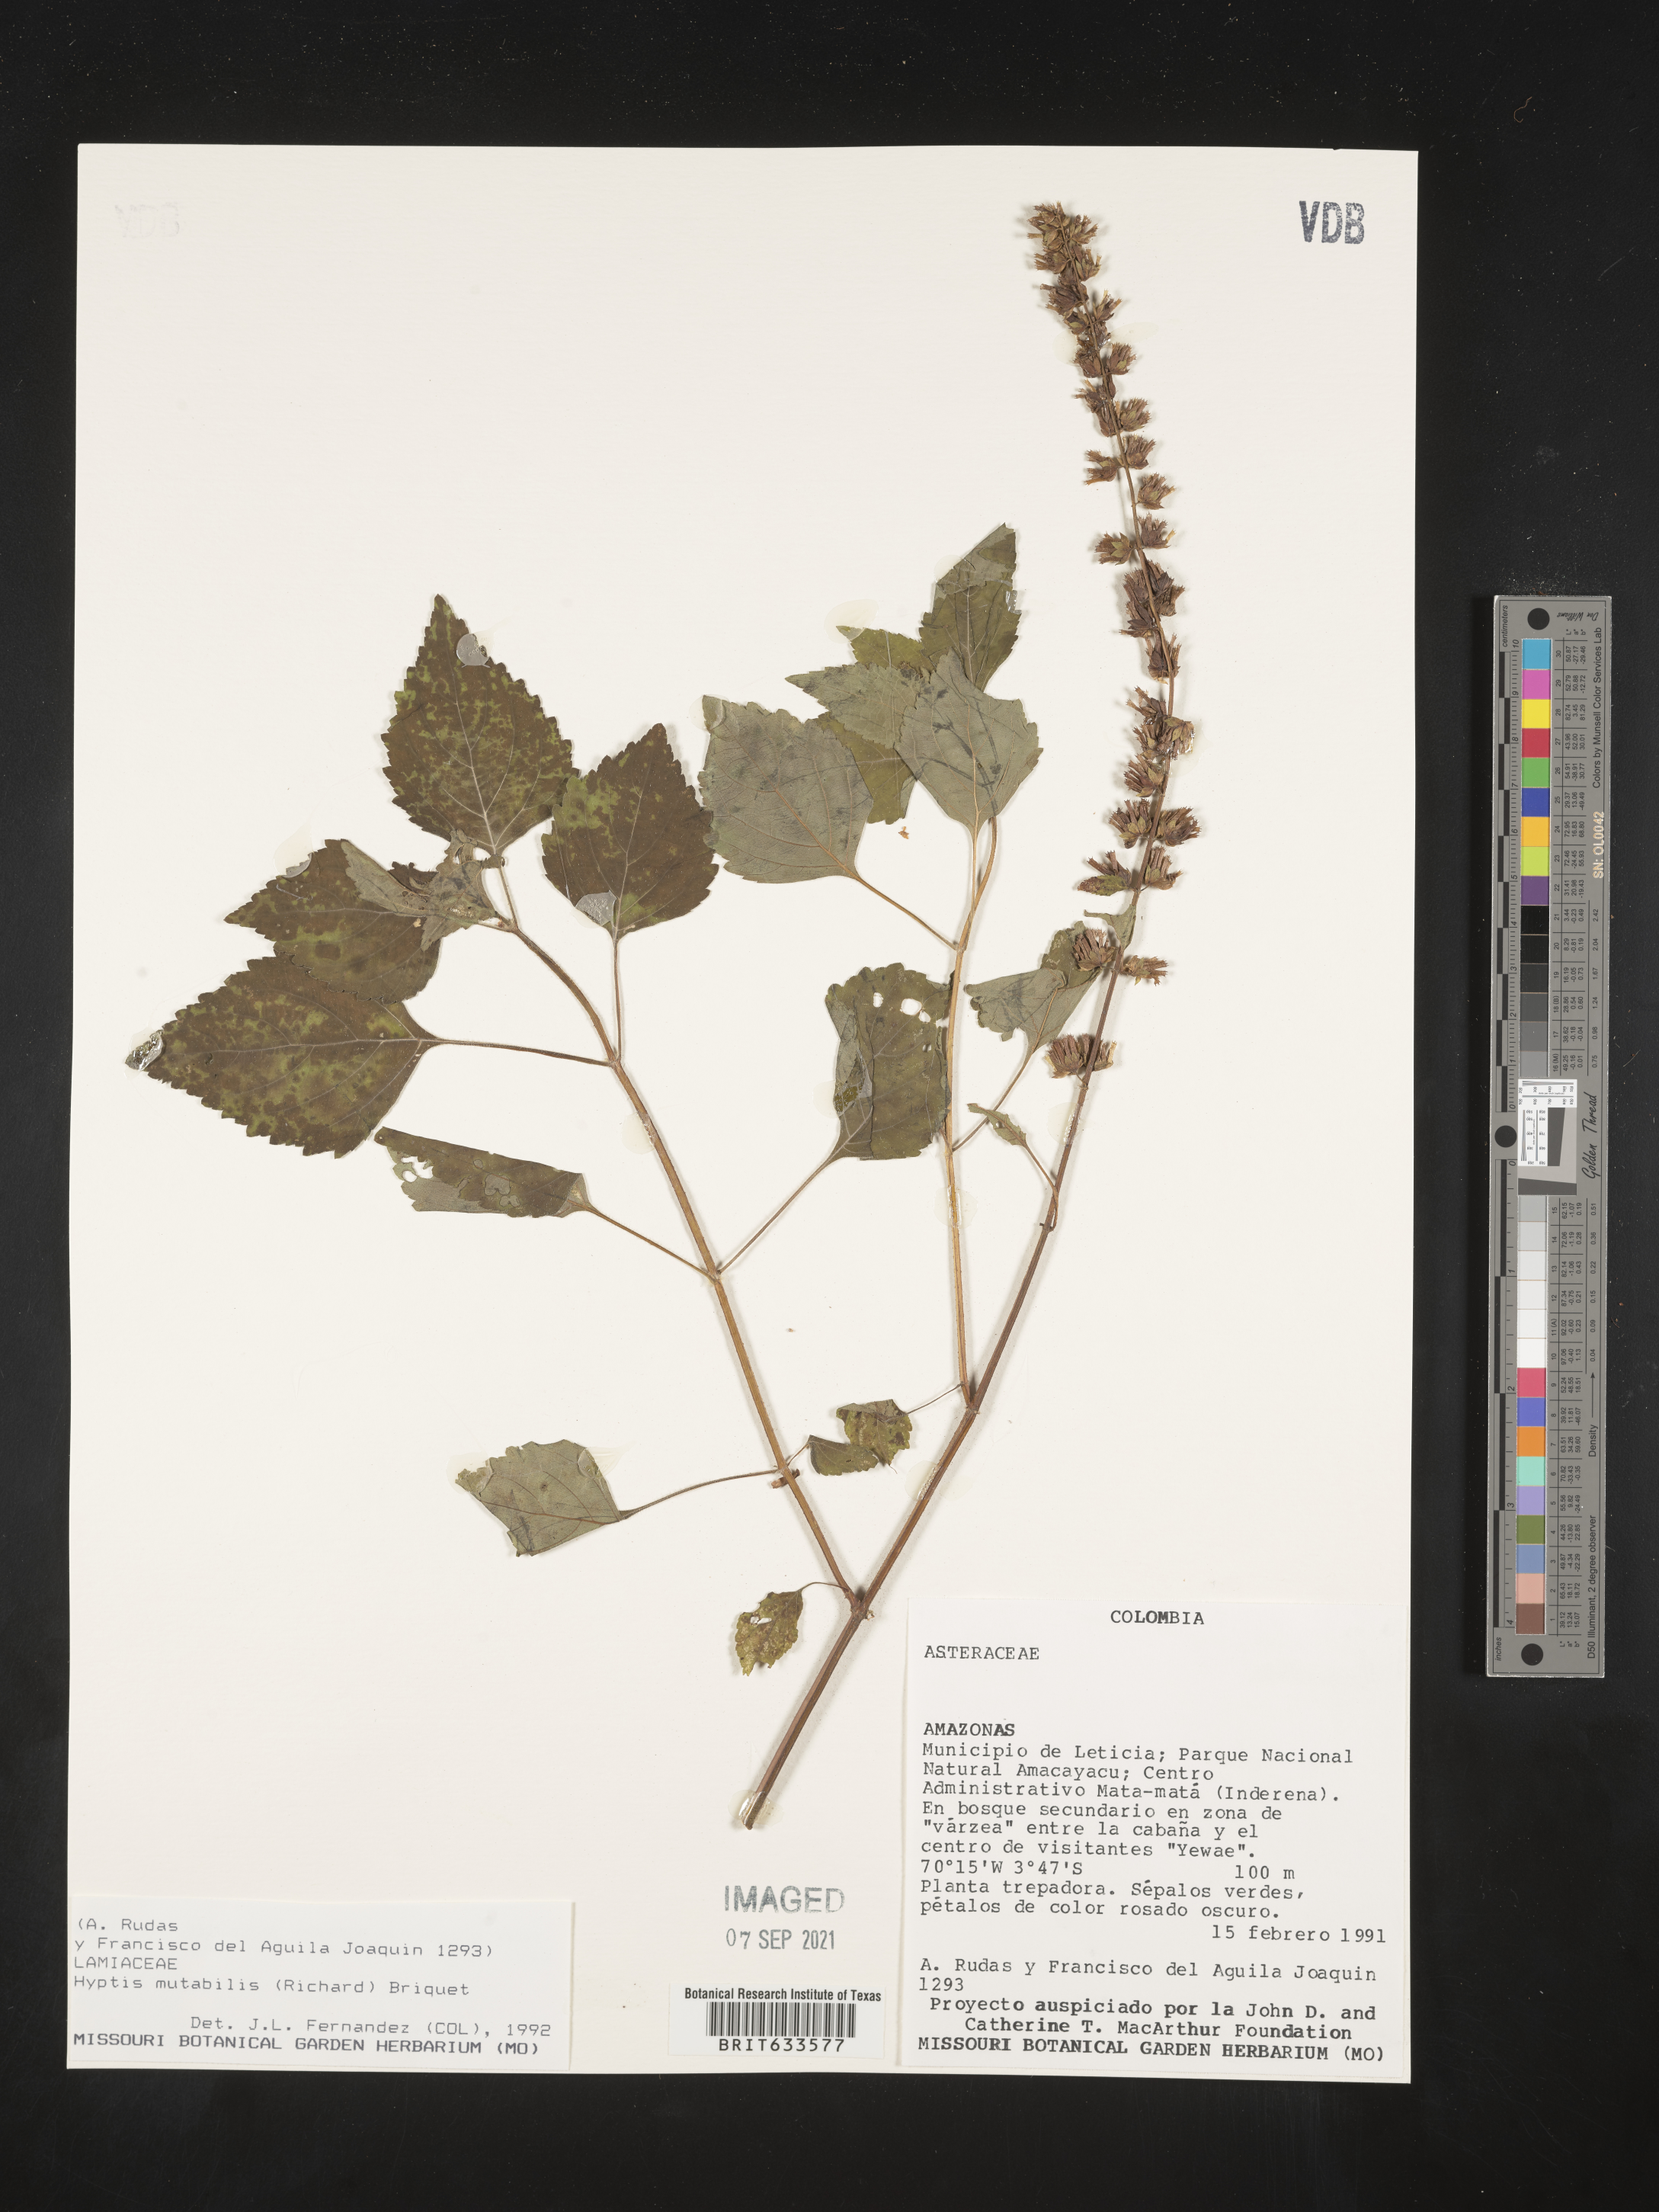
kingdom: Plantae
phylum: Tracheophyta
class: Magnoliopsida
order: Lamiales
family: Lamiaceae
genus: Hyptis
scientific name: Hyptis
